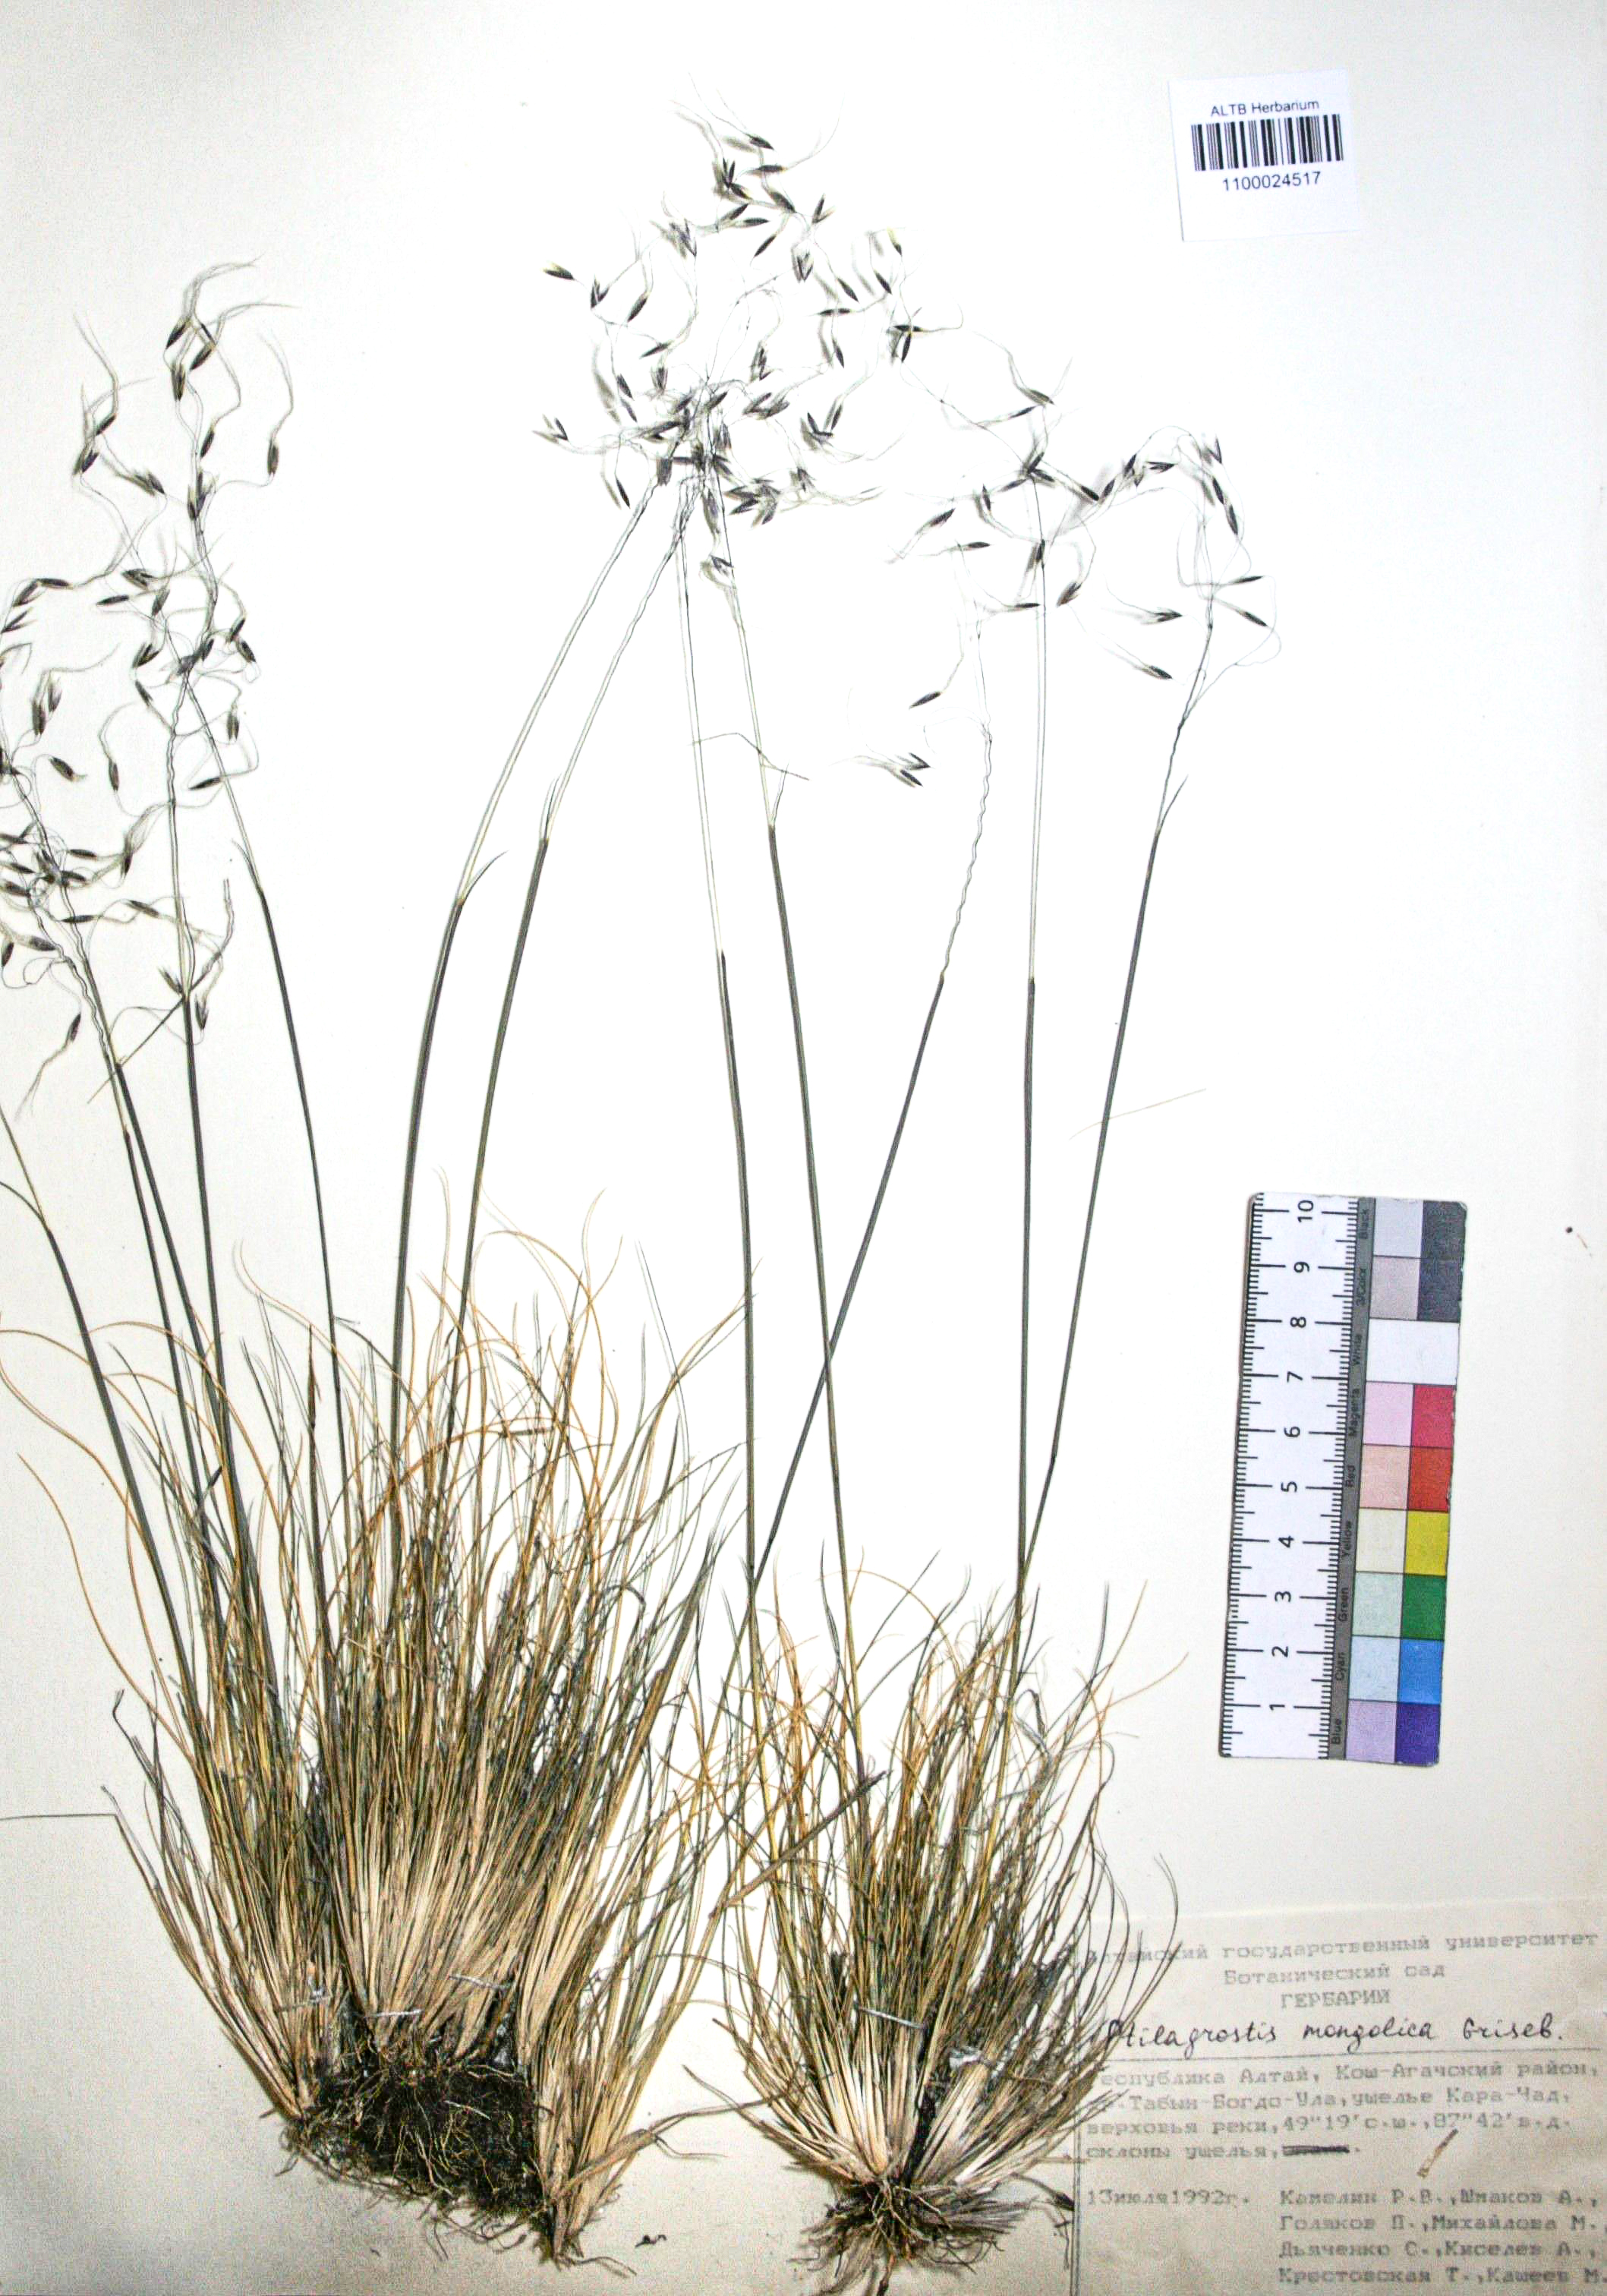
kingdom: Plantae
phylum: Tracheophyta
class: Liliopsida
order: Poales
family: Poaceae
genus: Ptilagrostis
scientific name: Ptilagrostis mongholica
